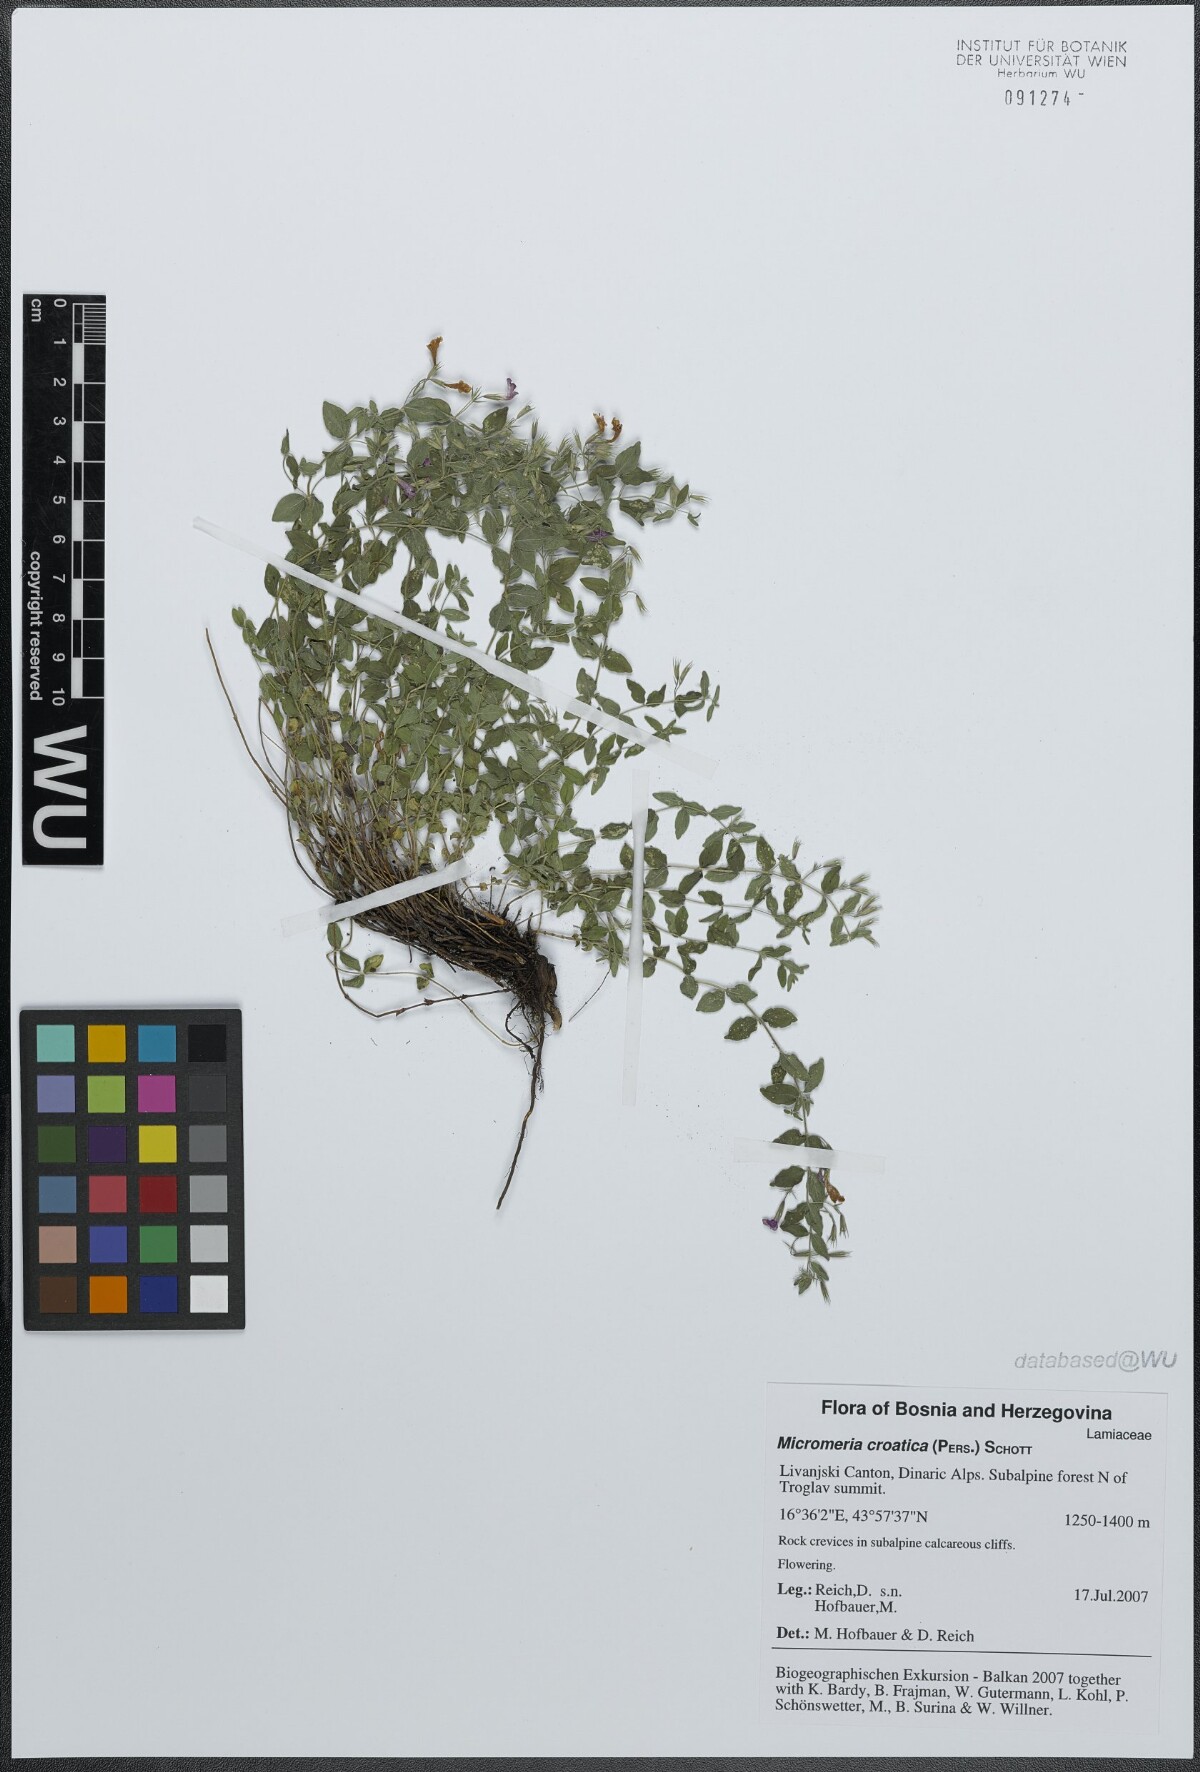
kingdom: Plantae
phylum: Tracheophyta
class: Magnoliopsida
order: Lamiales
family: Lamiaceae
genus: Micromeria
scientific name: Micromeria croatica
